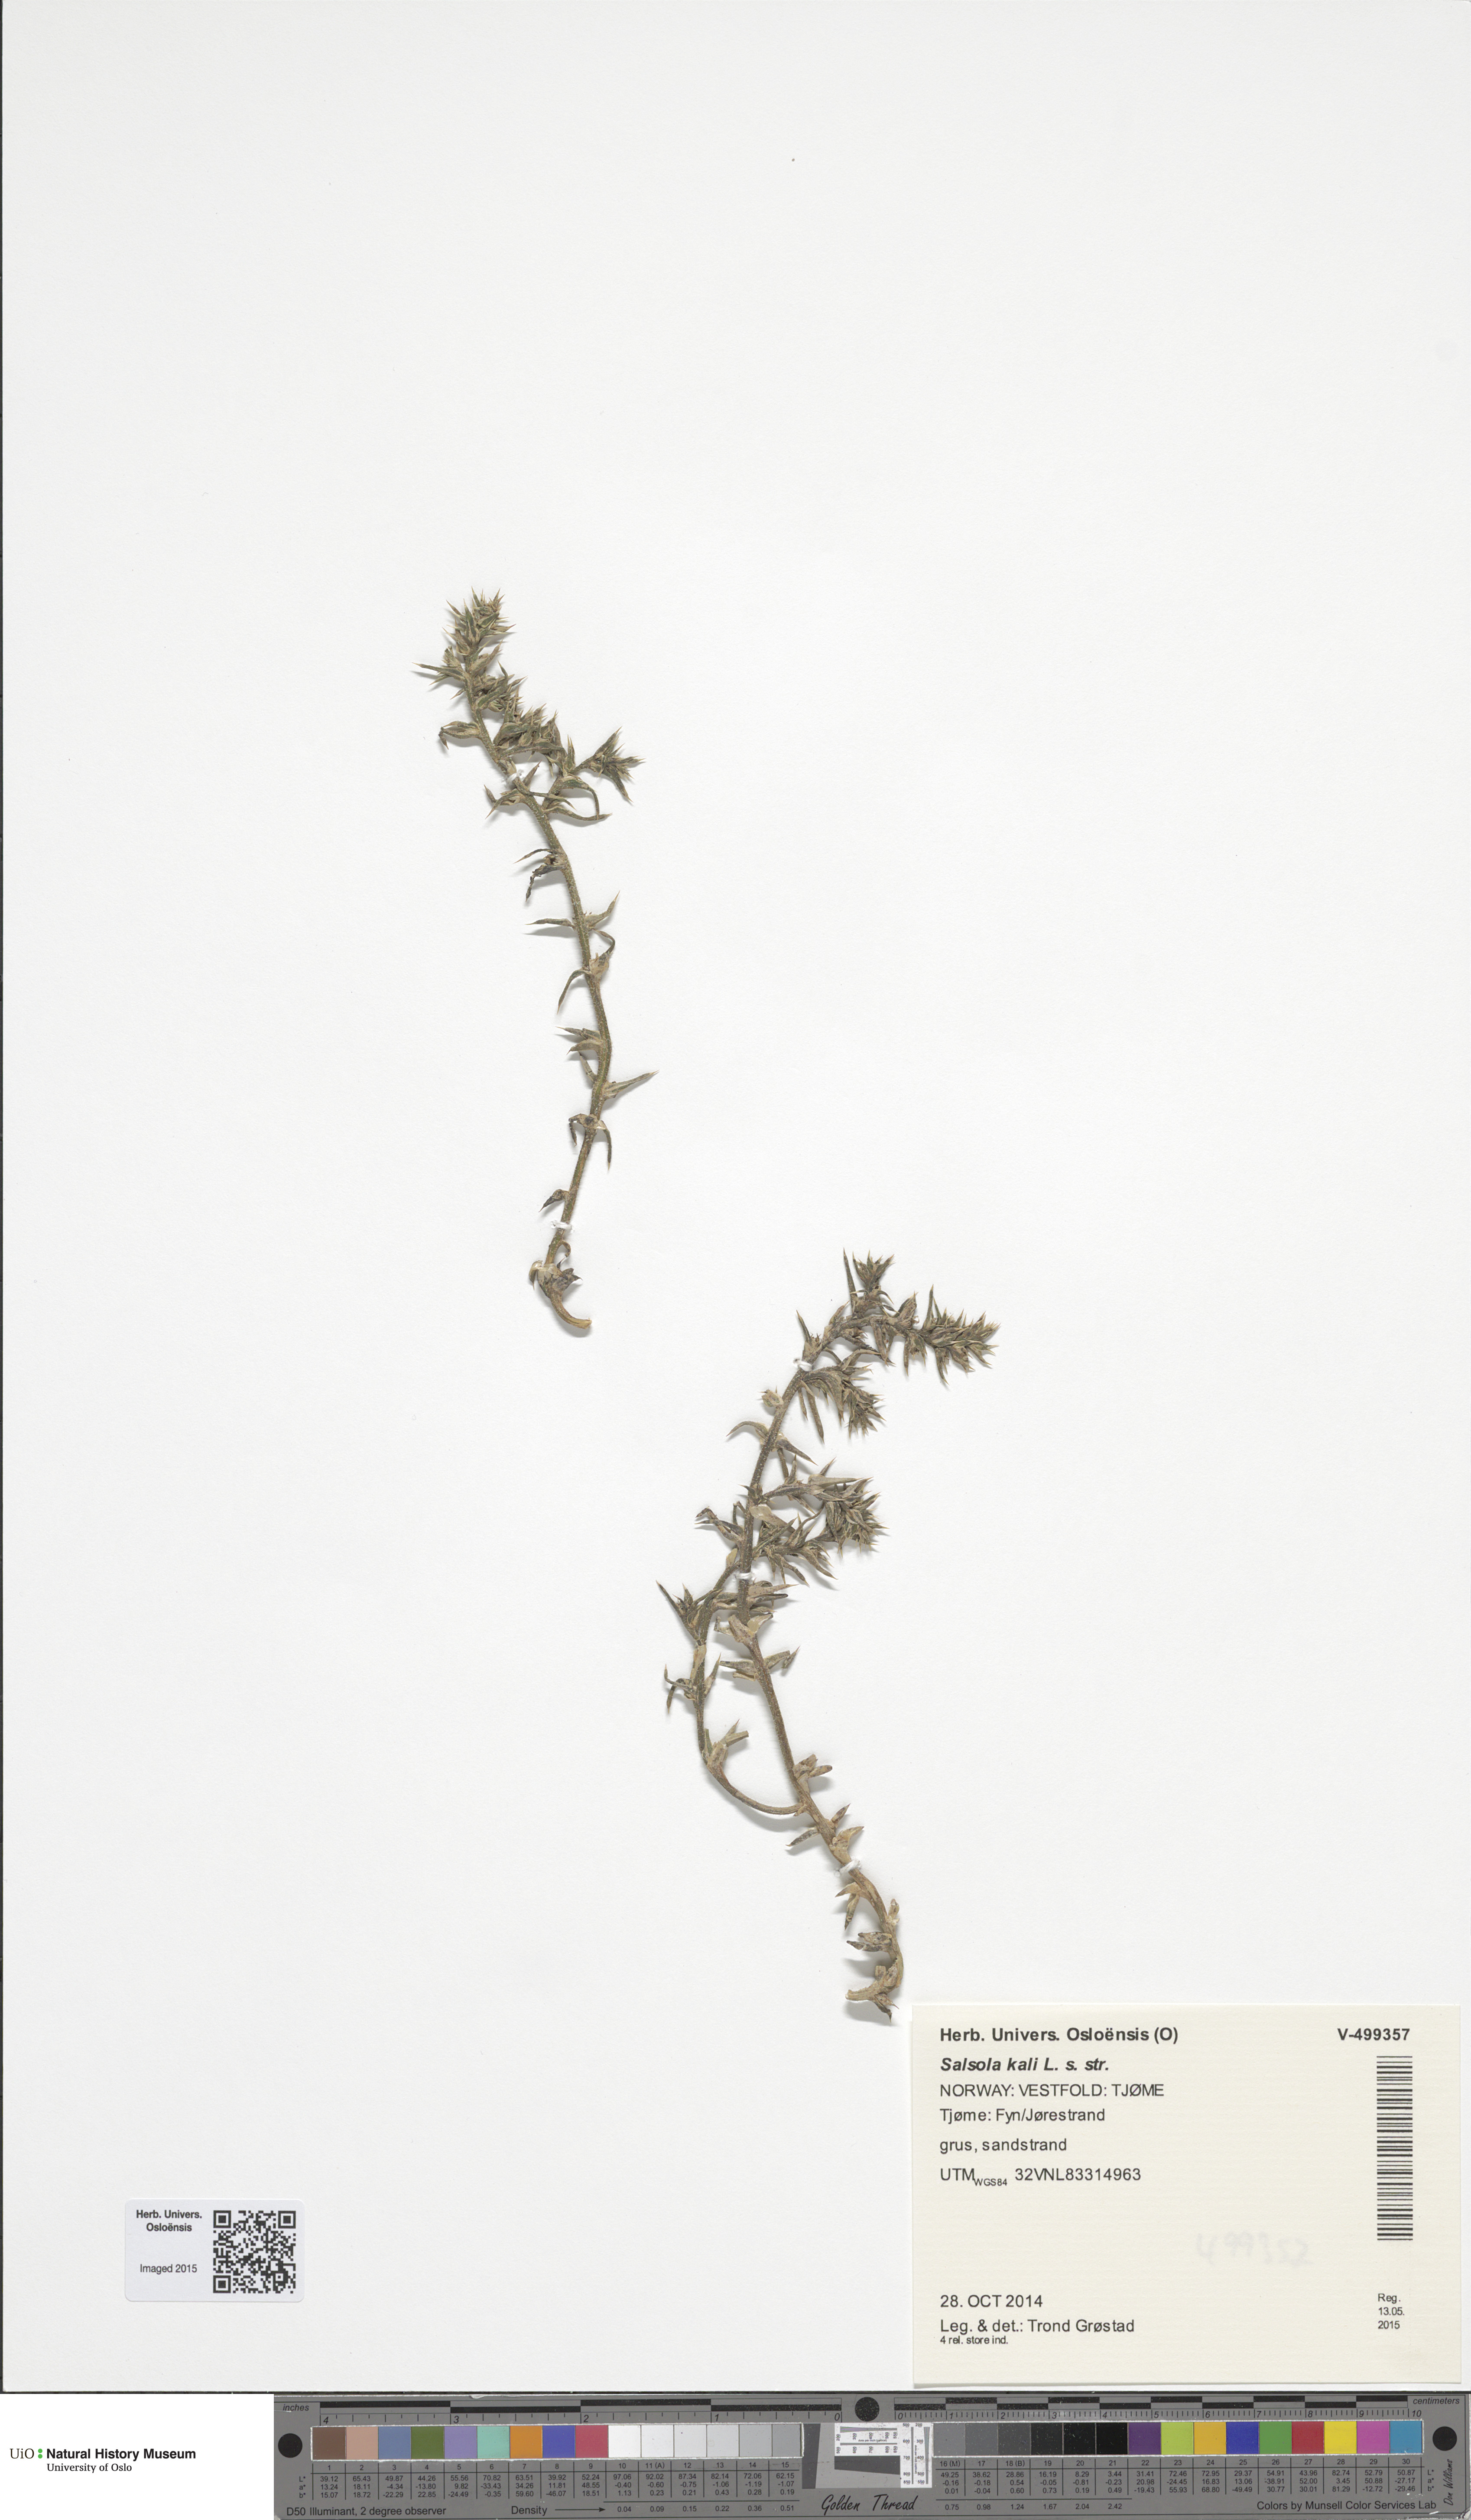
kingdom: Plantae
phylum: Tracheophyta
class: Magnoliopsida
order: Caryophyllales
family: Amaranthaceae
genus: Salsola
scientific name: Salsola kali
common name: Saltwort
